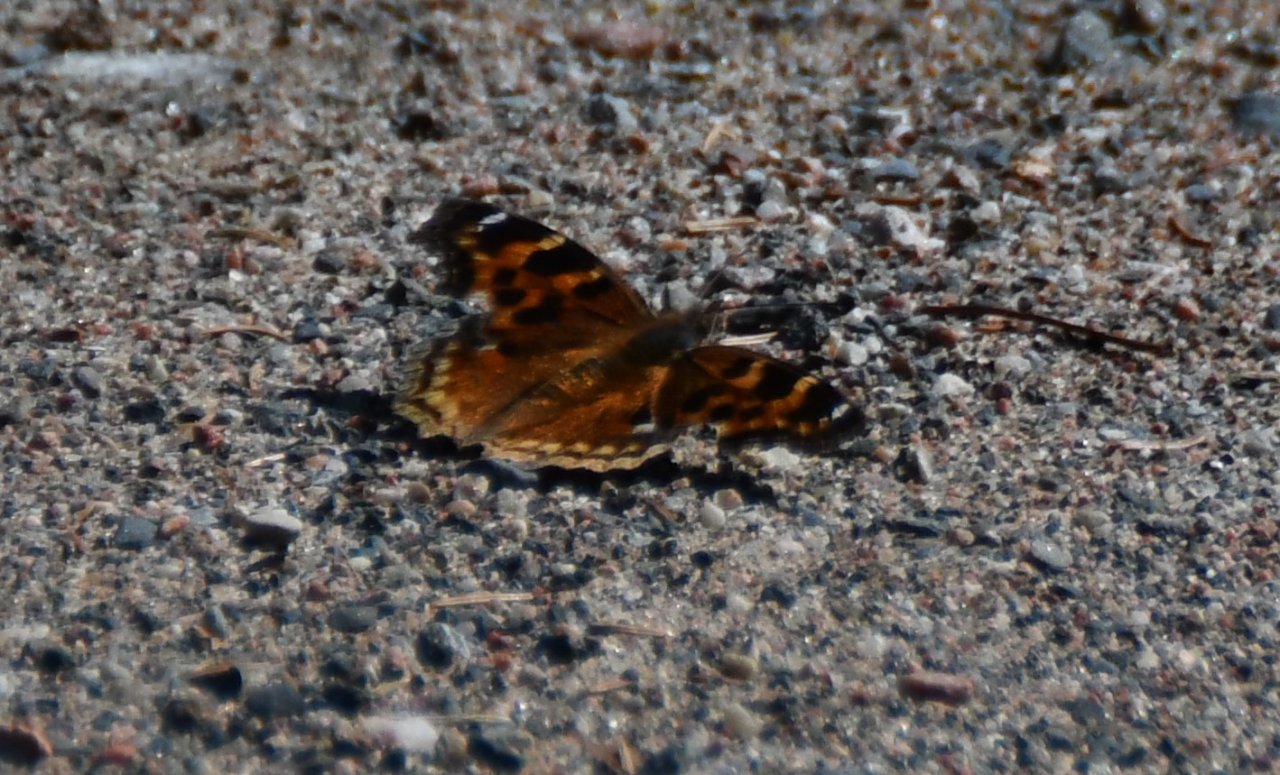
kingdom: Animalia
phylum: Arthropoda
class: Insecta
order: Lepidoptera
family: Nymphalidae
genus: Polygonia
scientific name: Polygonia vaualbum
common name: Compton Tortoiseshell
